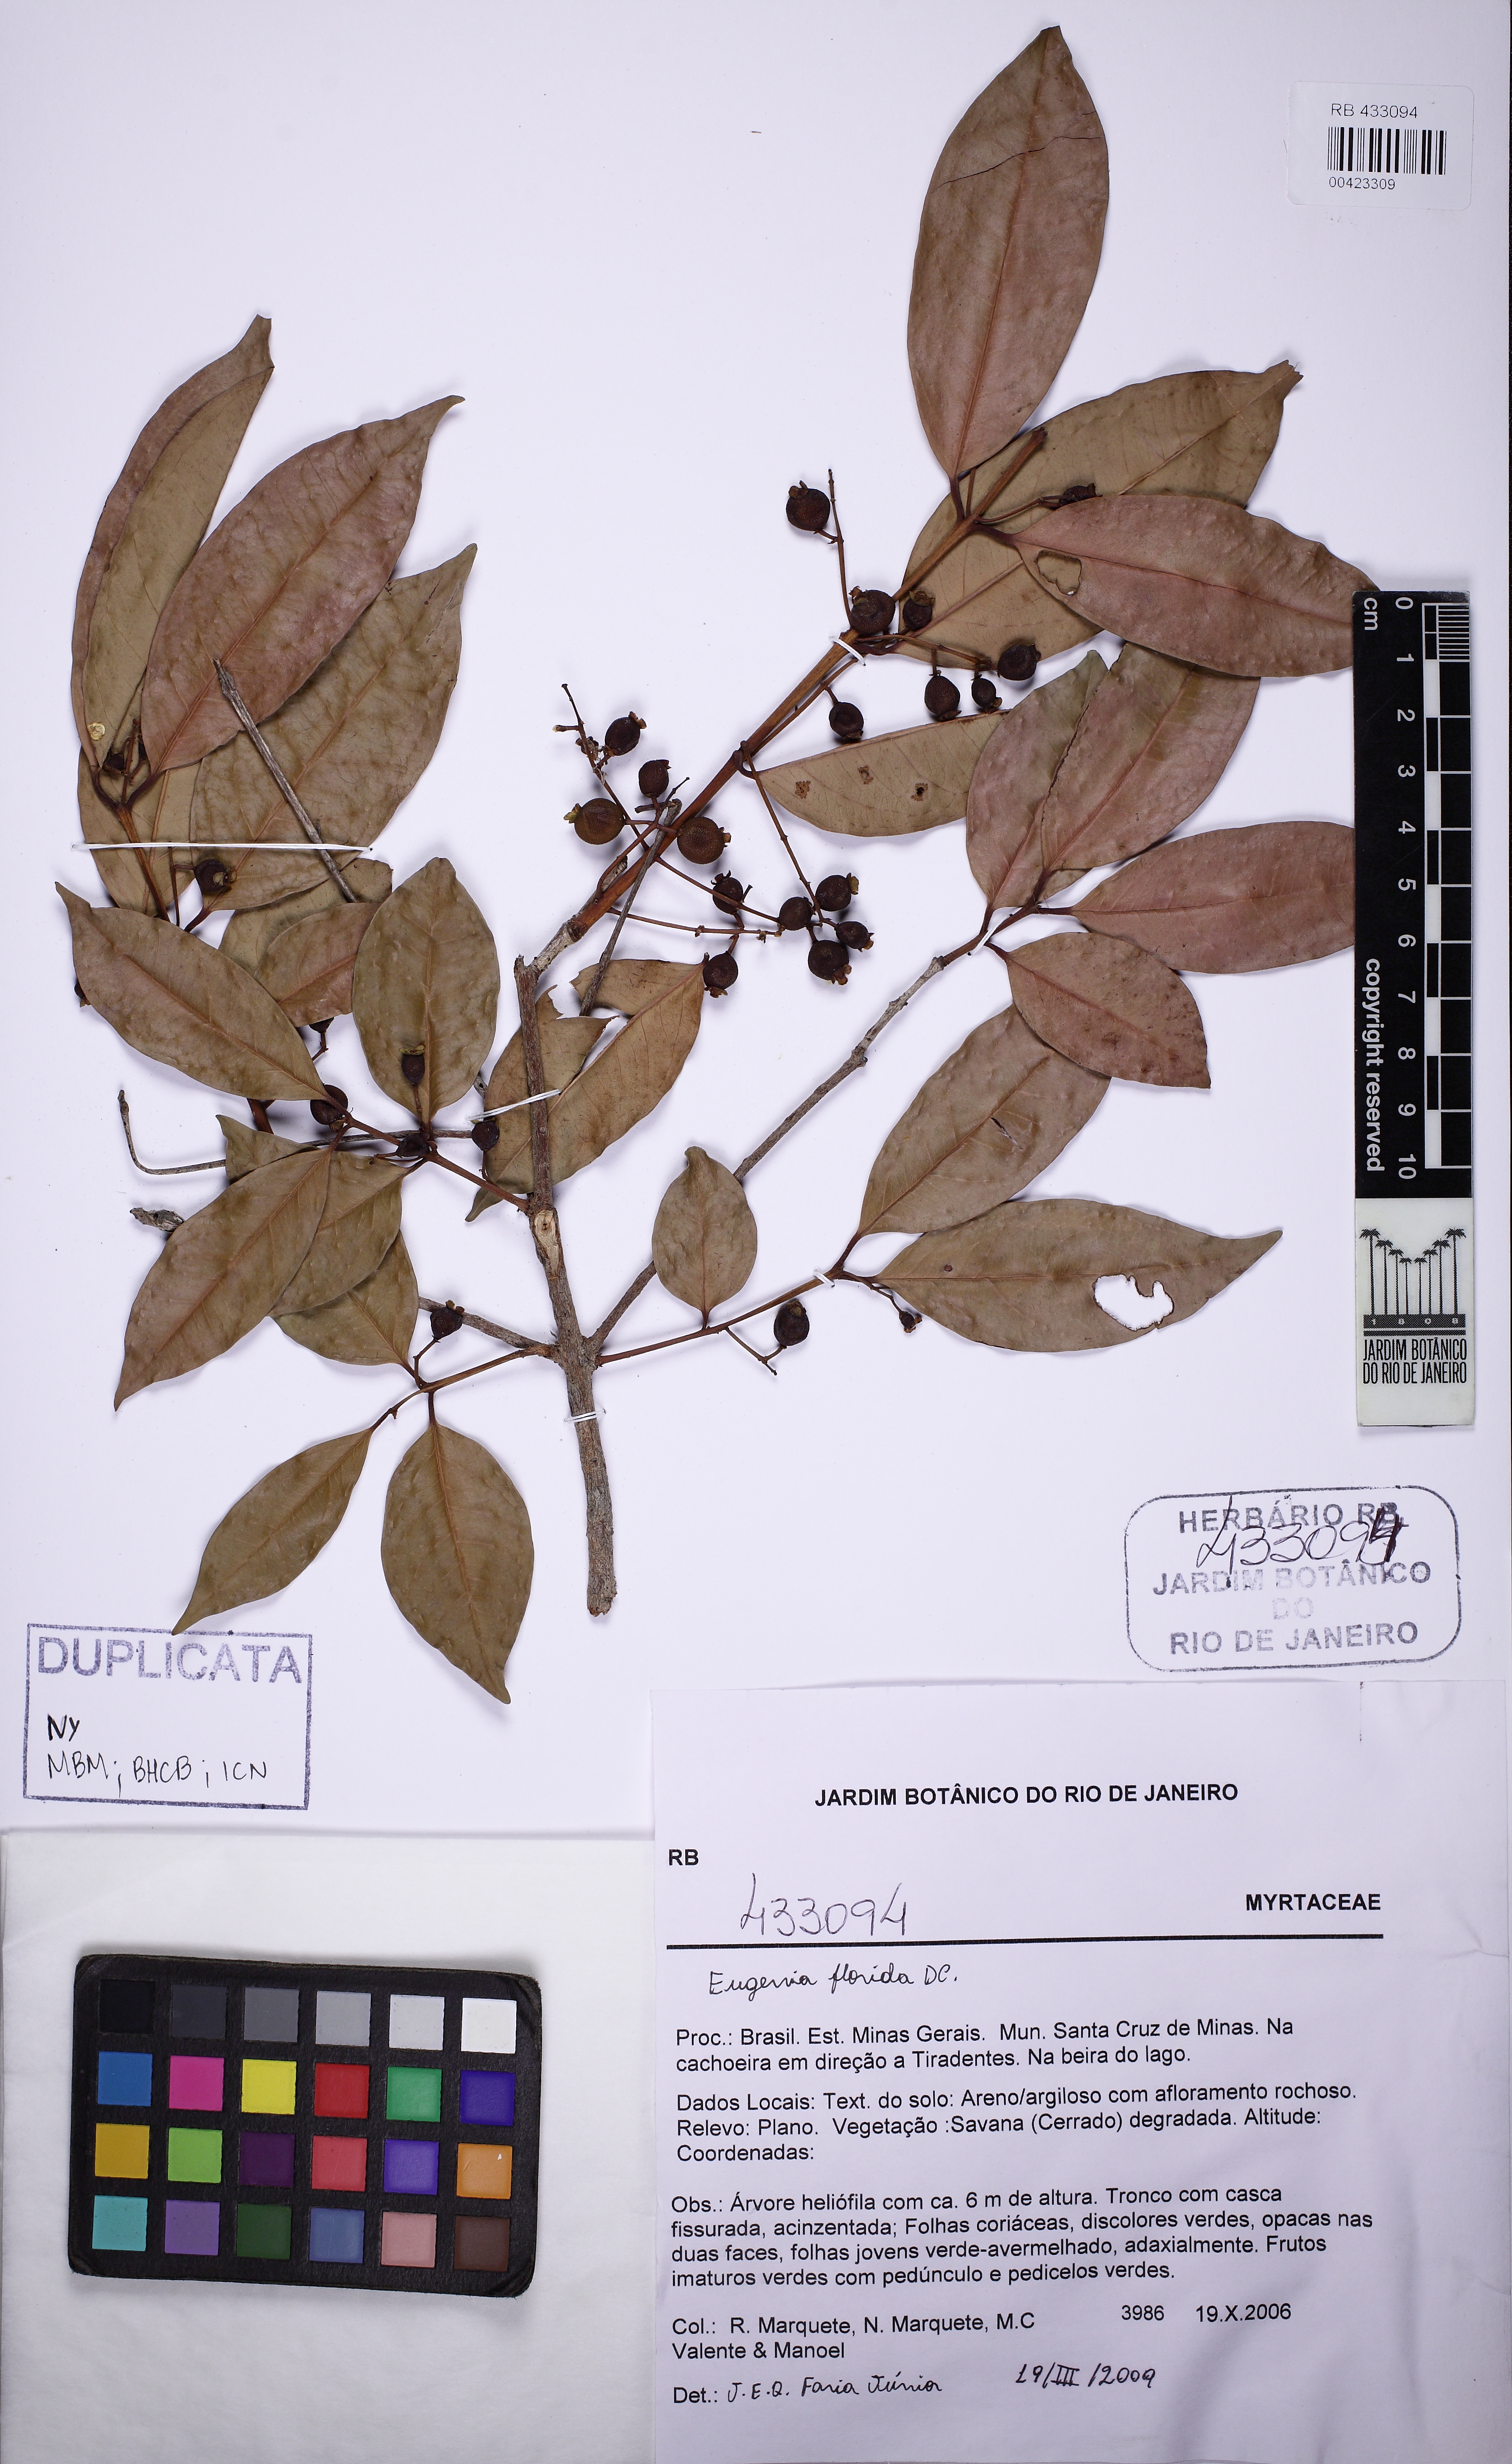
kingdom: Plantae
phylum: Tracheophyta
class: Magnoliopsida
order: Myrtales
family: Myrtaceae
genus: Eugenia
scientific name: Eugenia florida
